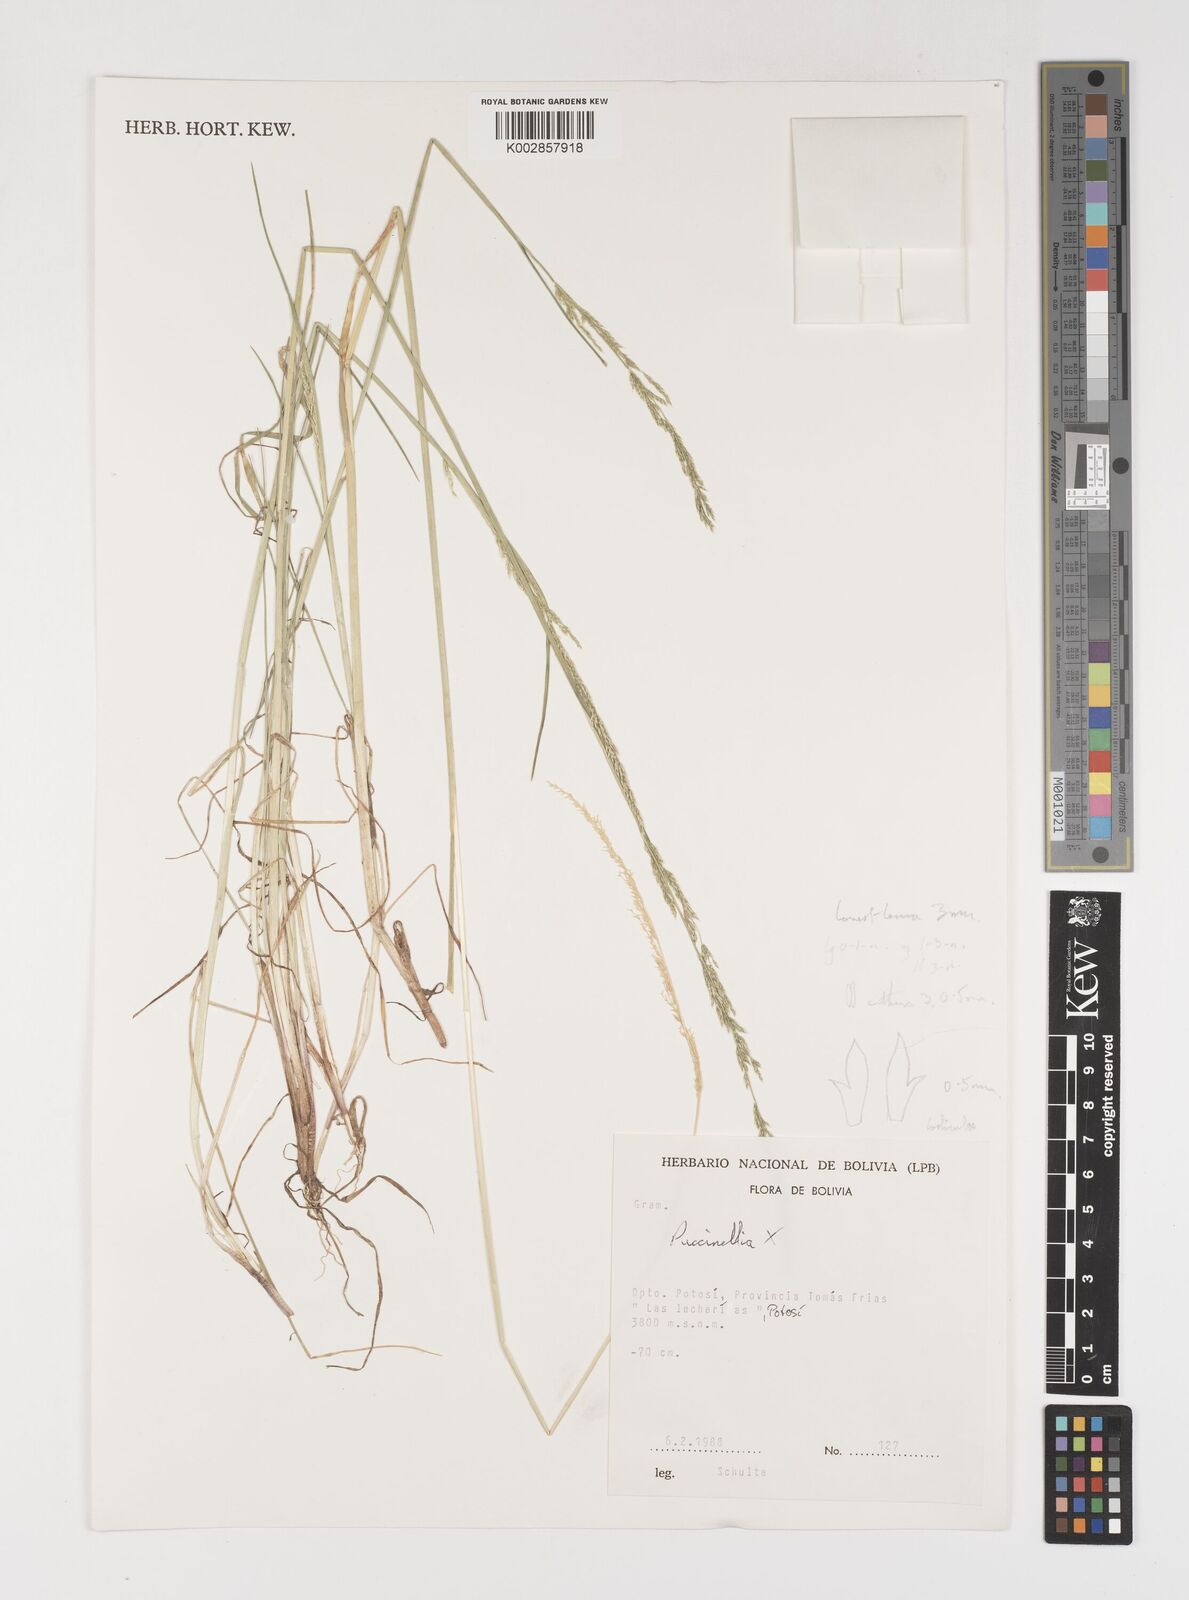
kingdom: Plantae
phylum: Tracheophyta
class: Liliopsida
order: Poales
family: Poaceae
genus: Puccinellia
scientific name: Puccinellia argentinensis
